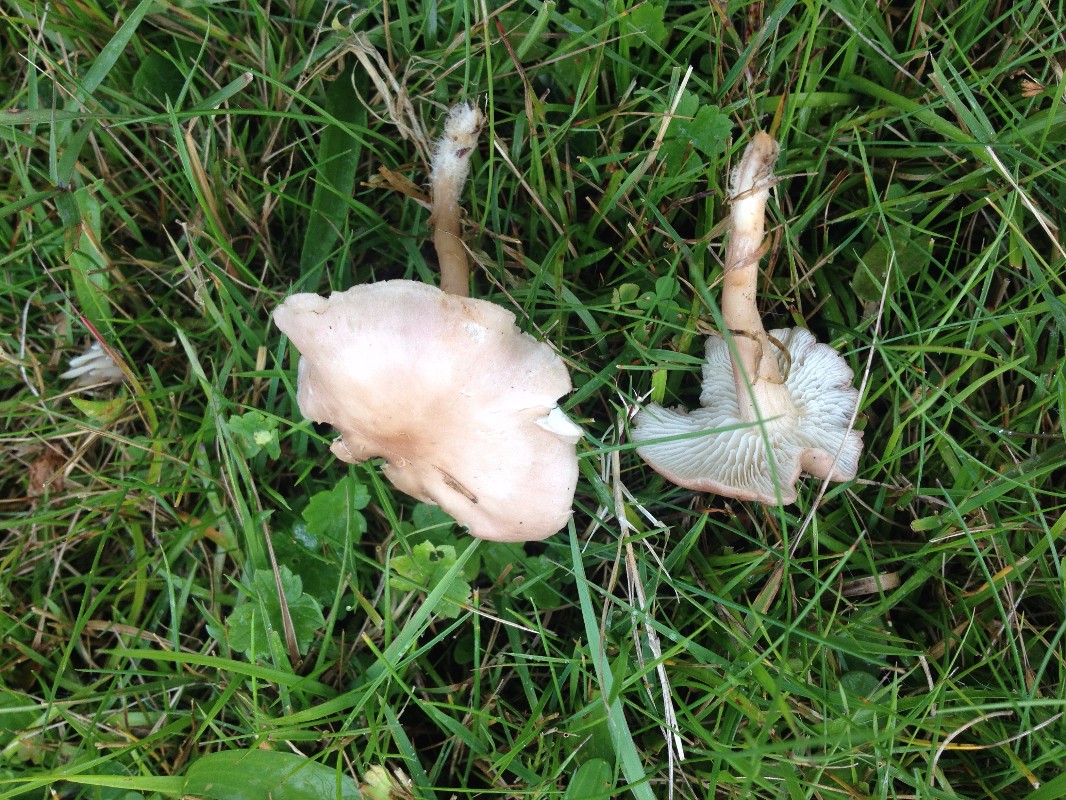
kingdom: Fungi
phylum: Basidiomycota
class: Agaricomycetes
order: Agaricales
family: Lyophyllaceae
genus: Calocybe
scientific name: Calocybe carnea
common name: rosa fagerhat
